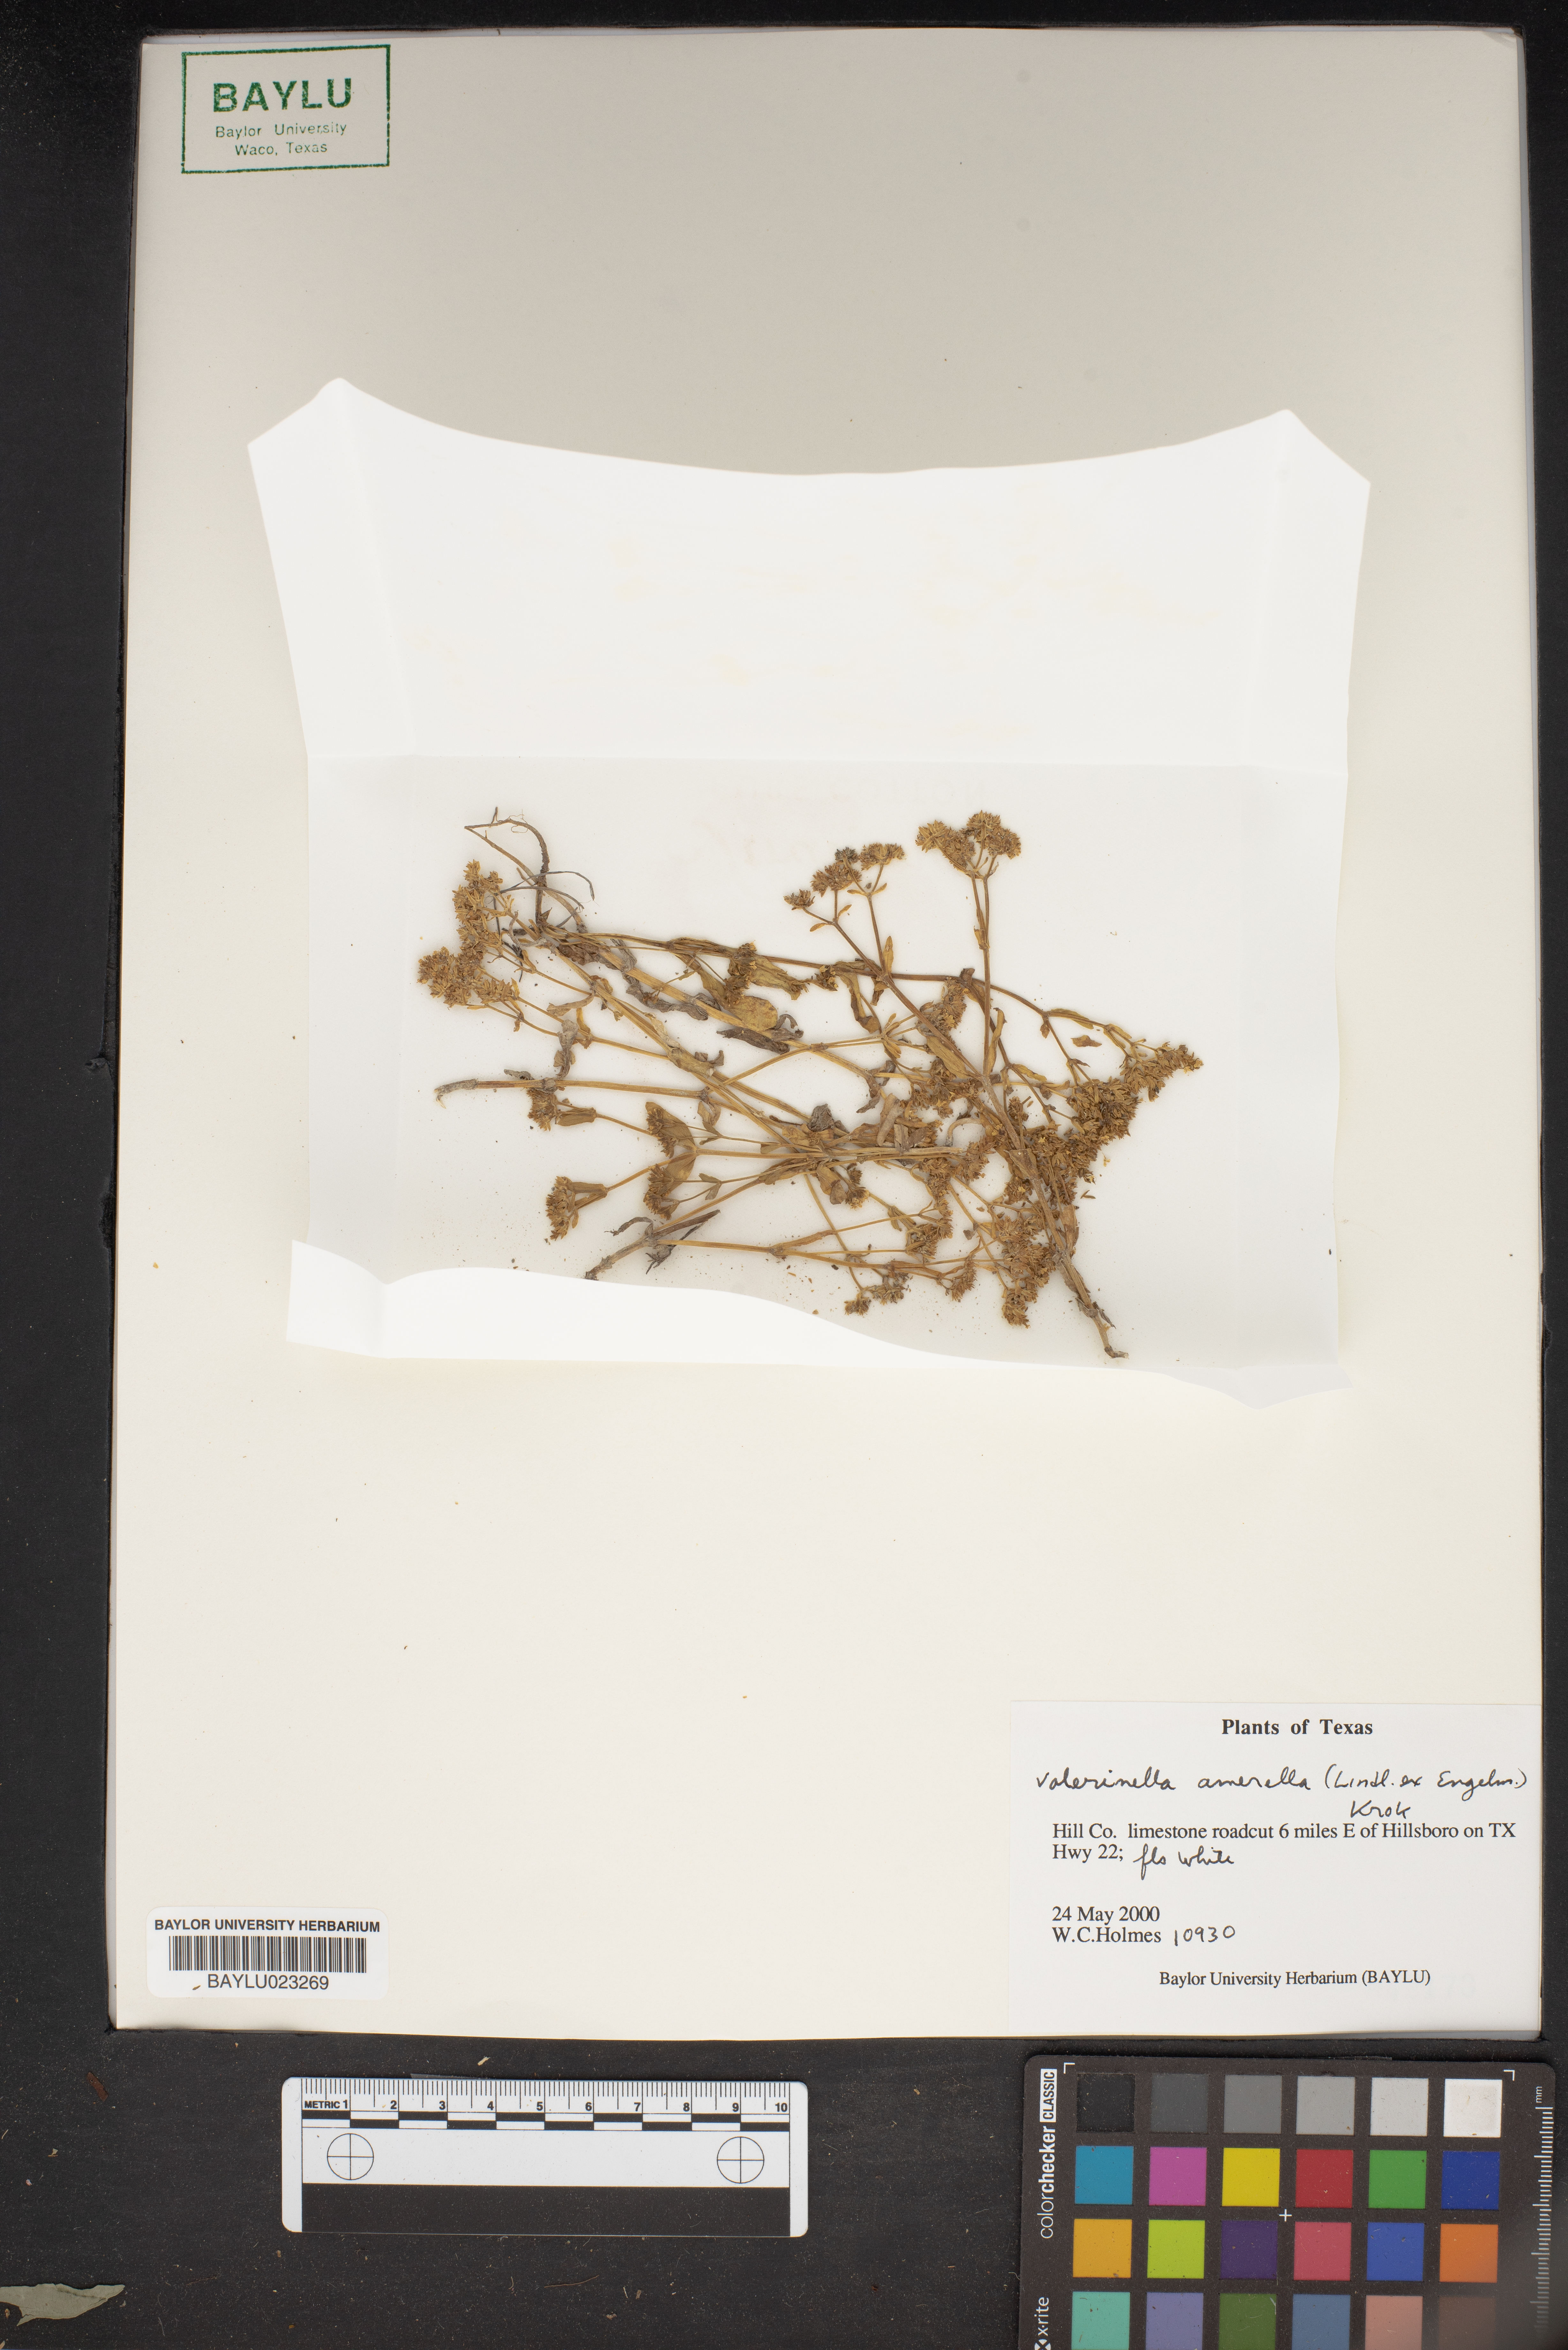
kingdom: Plantae
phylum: Tracheophyta
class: Magnoliopsida
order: Dipsacales
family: Caprifoliaceae
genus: Valerianella
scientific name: Valerianella amarella
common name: Hariy cornsalad
